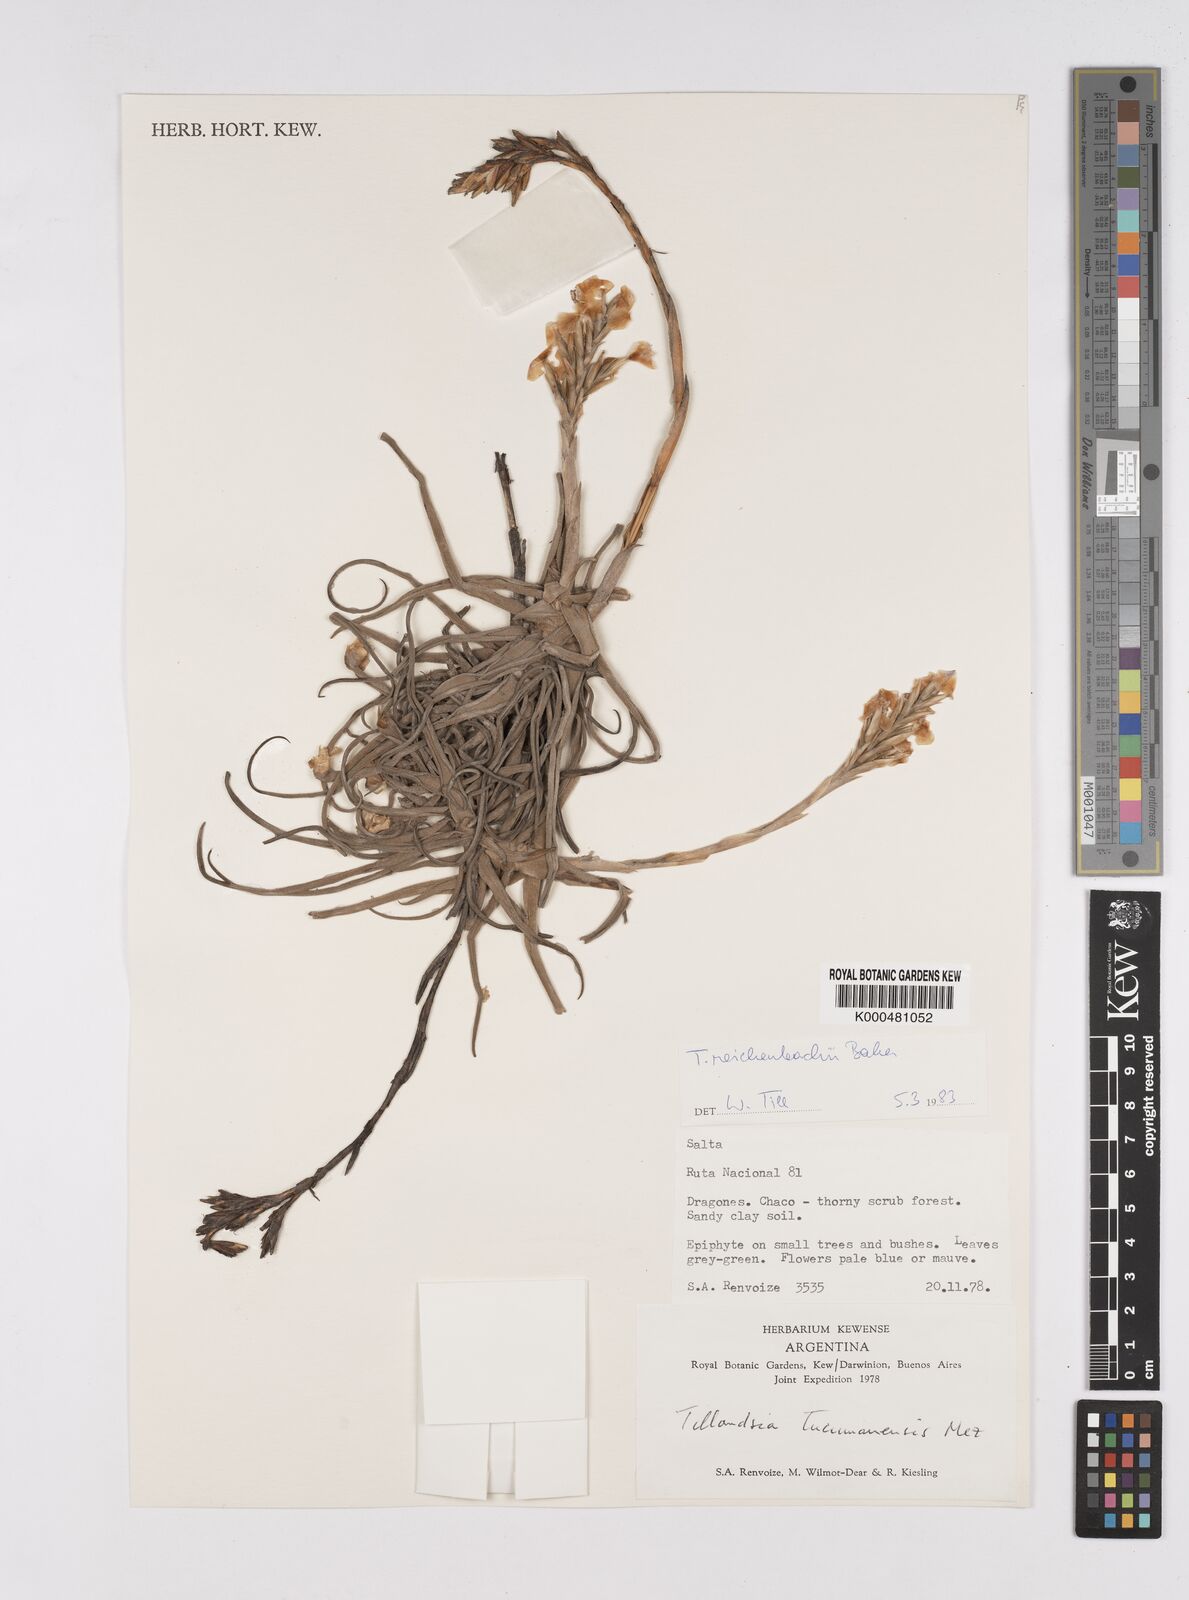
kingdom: Plantae
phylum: Tracheophyta
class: Liliopsida
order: Poales
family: Bromeliaceae
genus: Tillandsia
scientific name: Tillandsia reichenbachii
